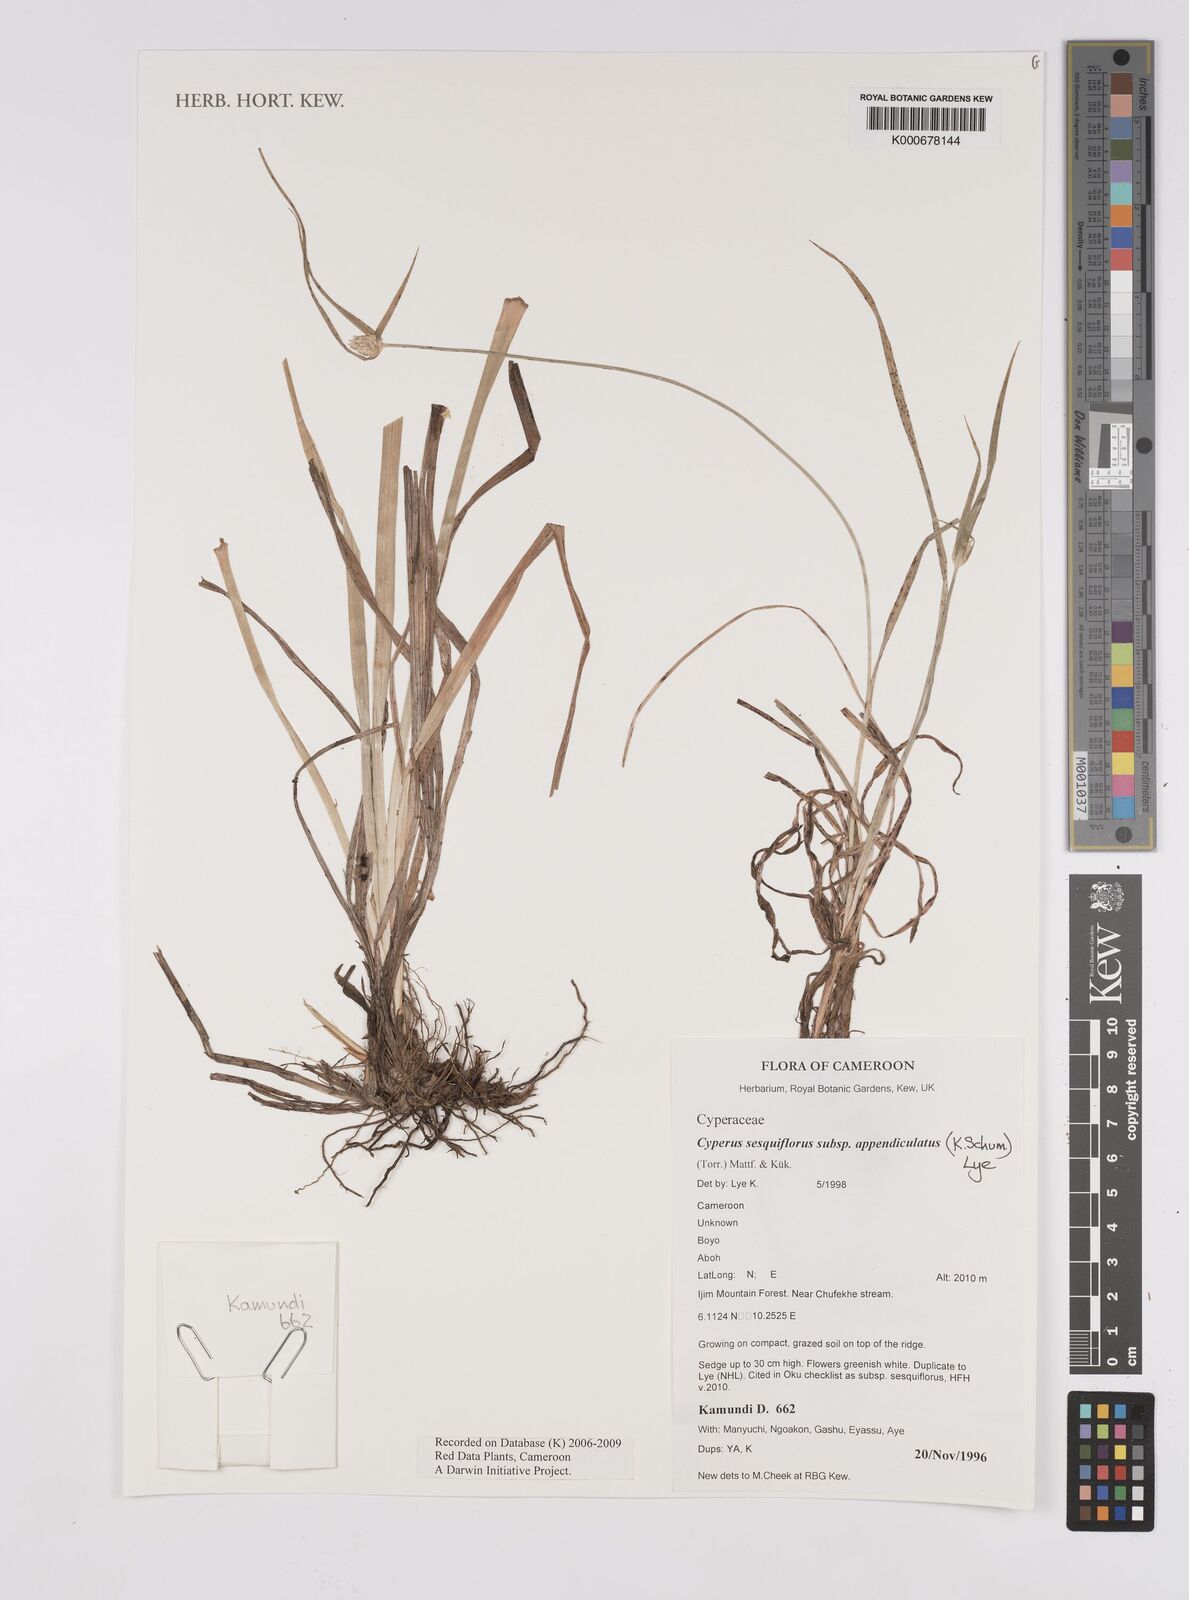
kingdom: Plantae
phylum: Tracheophyta
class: Liliopsida
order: Poales
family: Cyperaceae
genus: Cyperus
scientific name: Cyperus sesquiflorus
